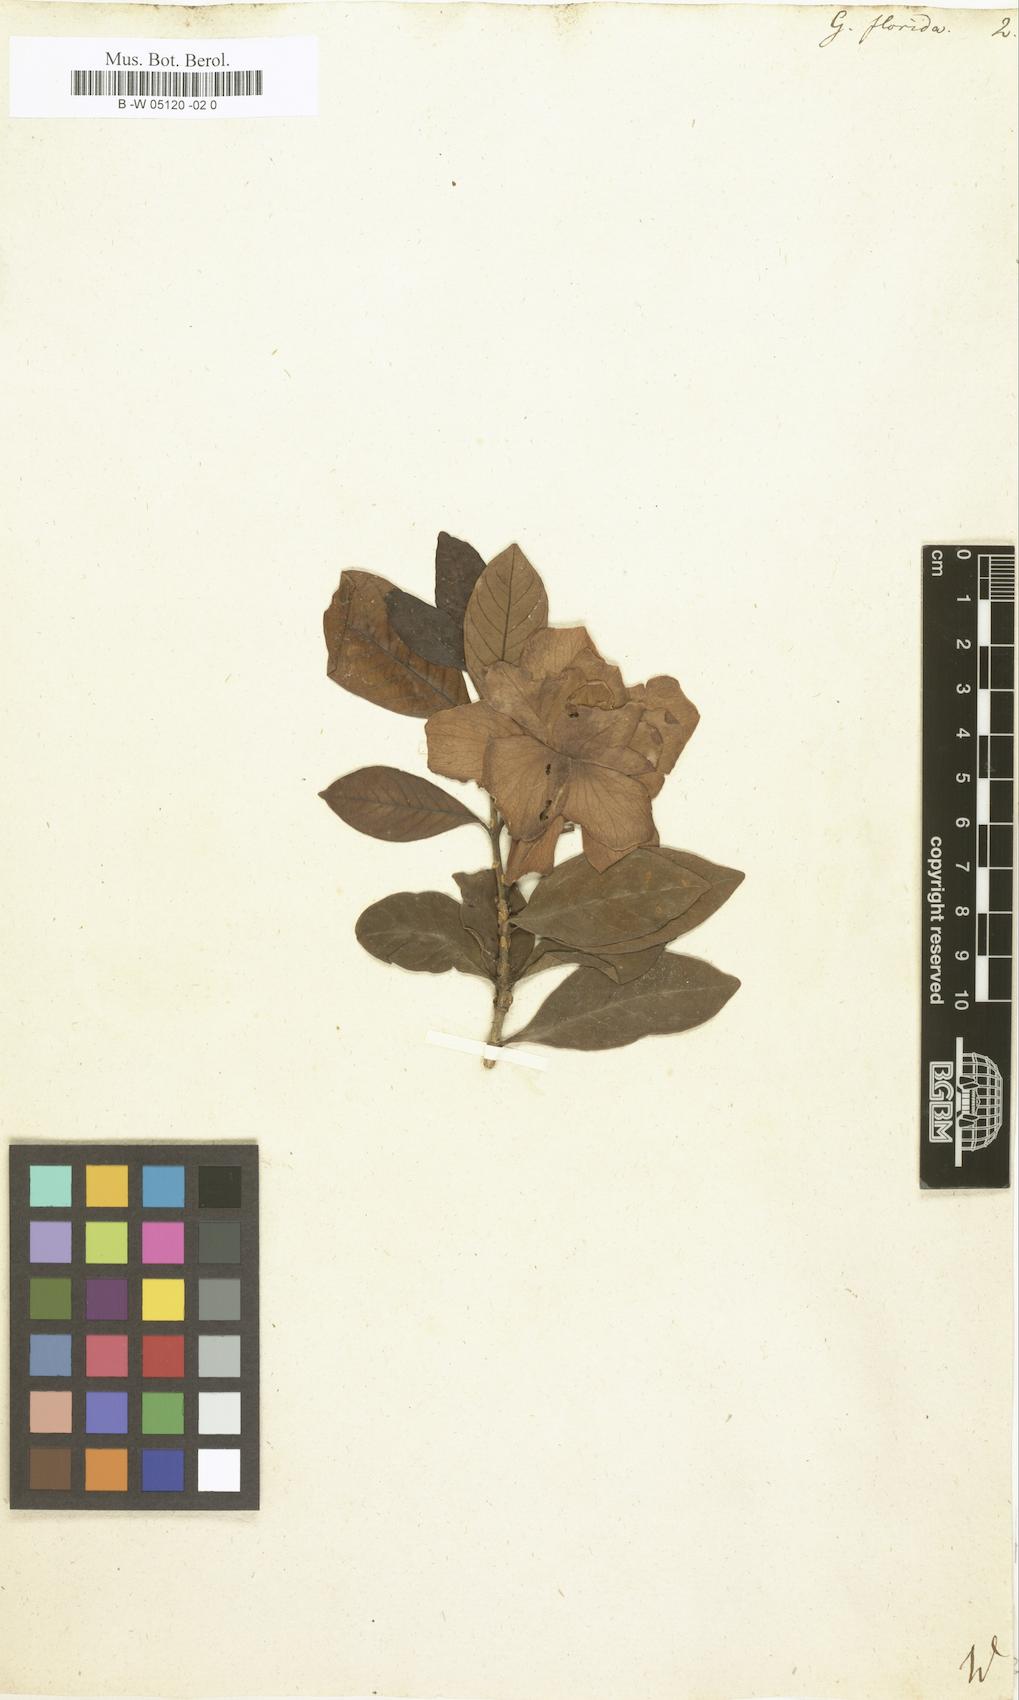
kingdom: Plantae
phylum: Tracheophyta
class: Magnoliopsida
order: Gentianales
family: Rubiaceae
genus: Gardenia
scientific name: Gardenia jasminoides
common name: Cape-jasmine
